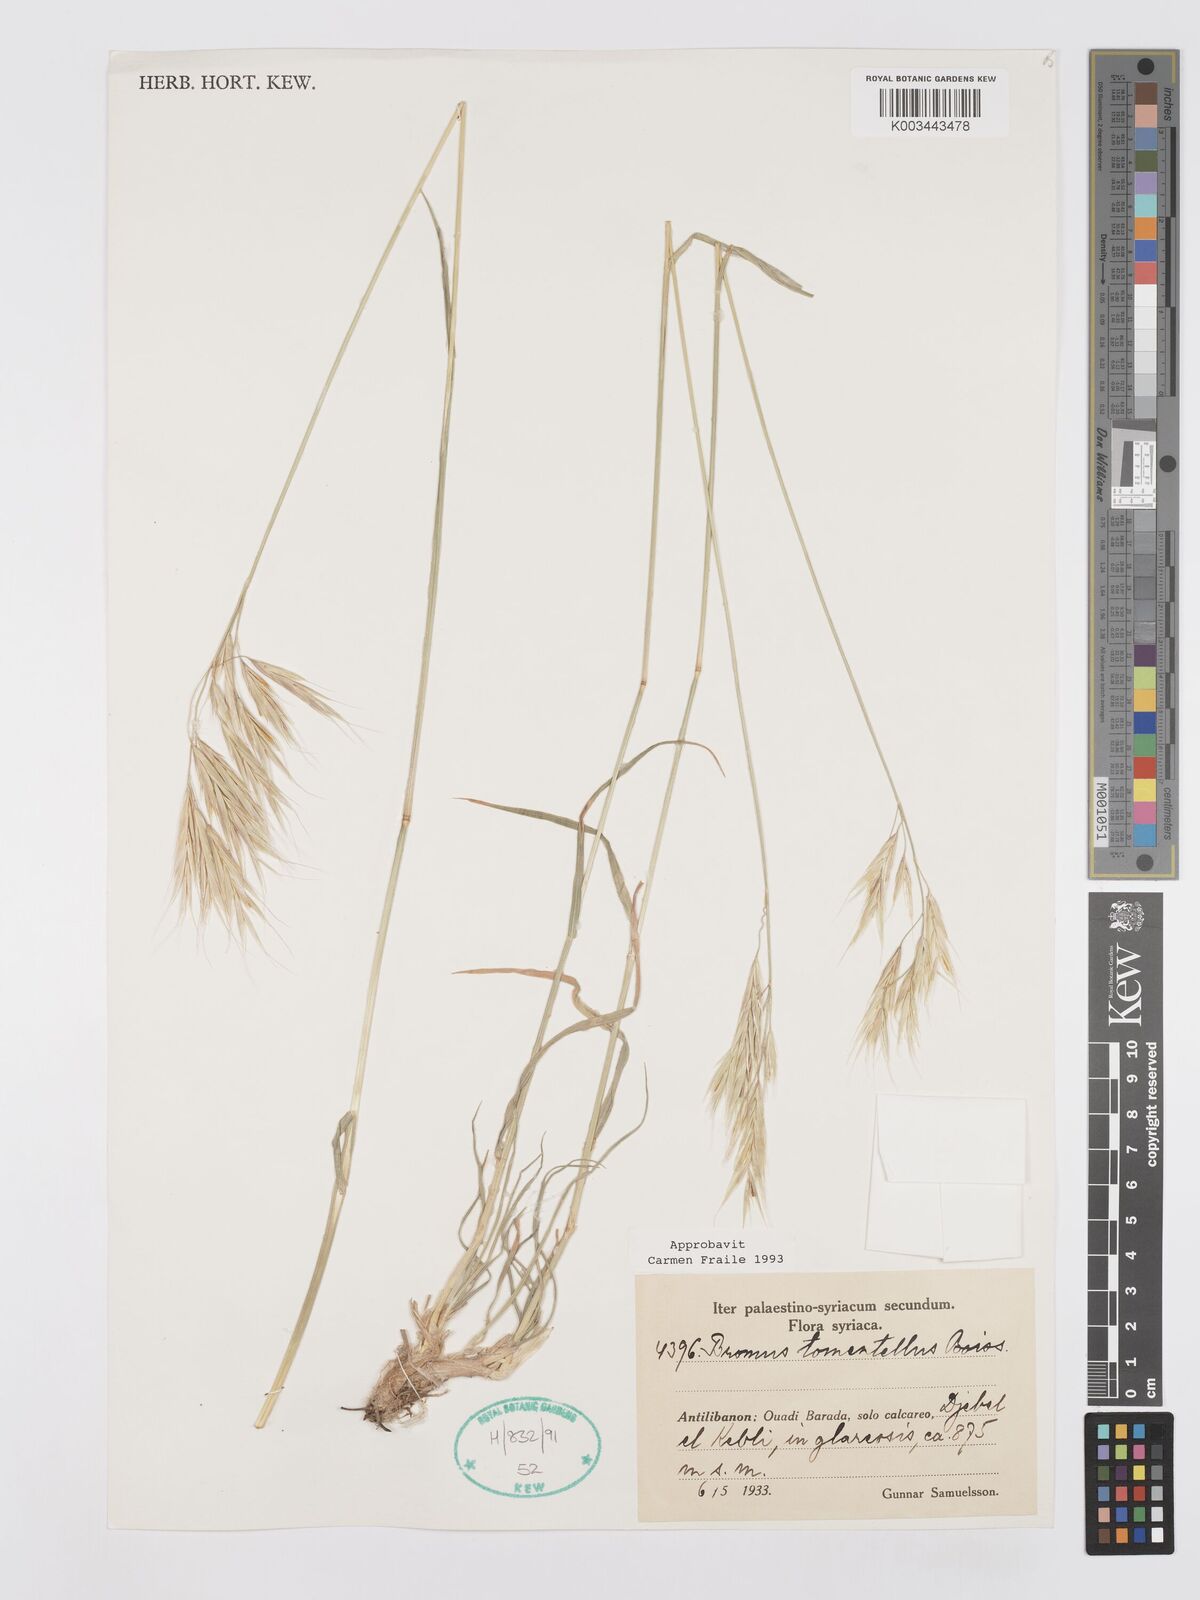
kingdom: Plantae
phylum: Tracheophyta
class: Liliopsida
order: Poales
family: Poaceae
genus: Bromus
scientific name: Bromus tomentellus
